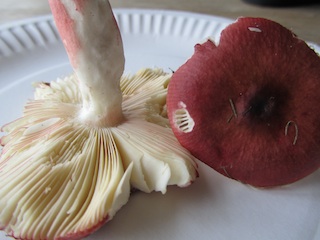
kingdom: Fungi
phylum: Basidiomycota
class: Agaricomycetes
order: Russulales
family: Russulaceae
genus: Russula
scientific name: Russula nitida
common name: året skørhat
